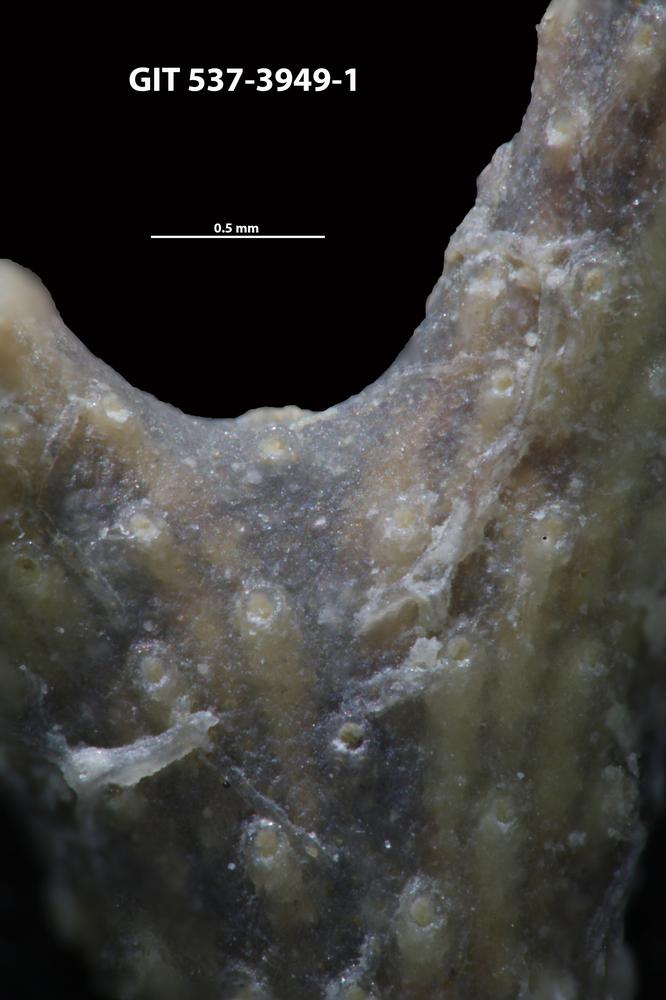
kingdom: Animalia
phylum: Bryozoa
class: Stenolaemata
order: Cyclostomatida
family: Corynotrypidae
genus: Corynotrypa
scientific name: Corynotrypa
